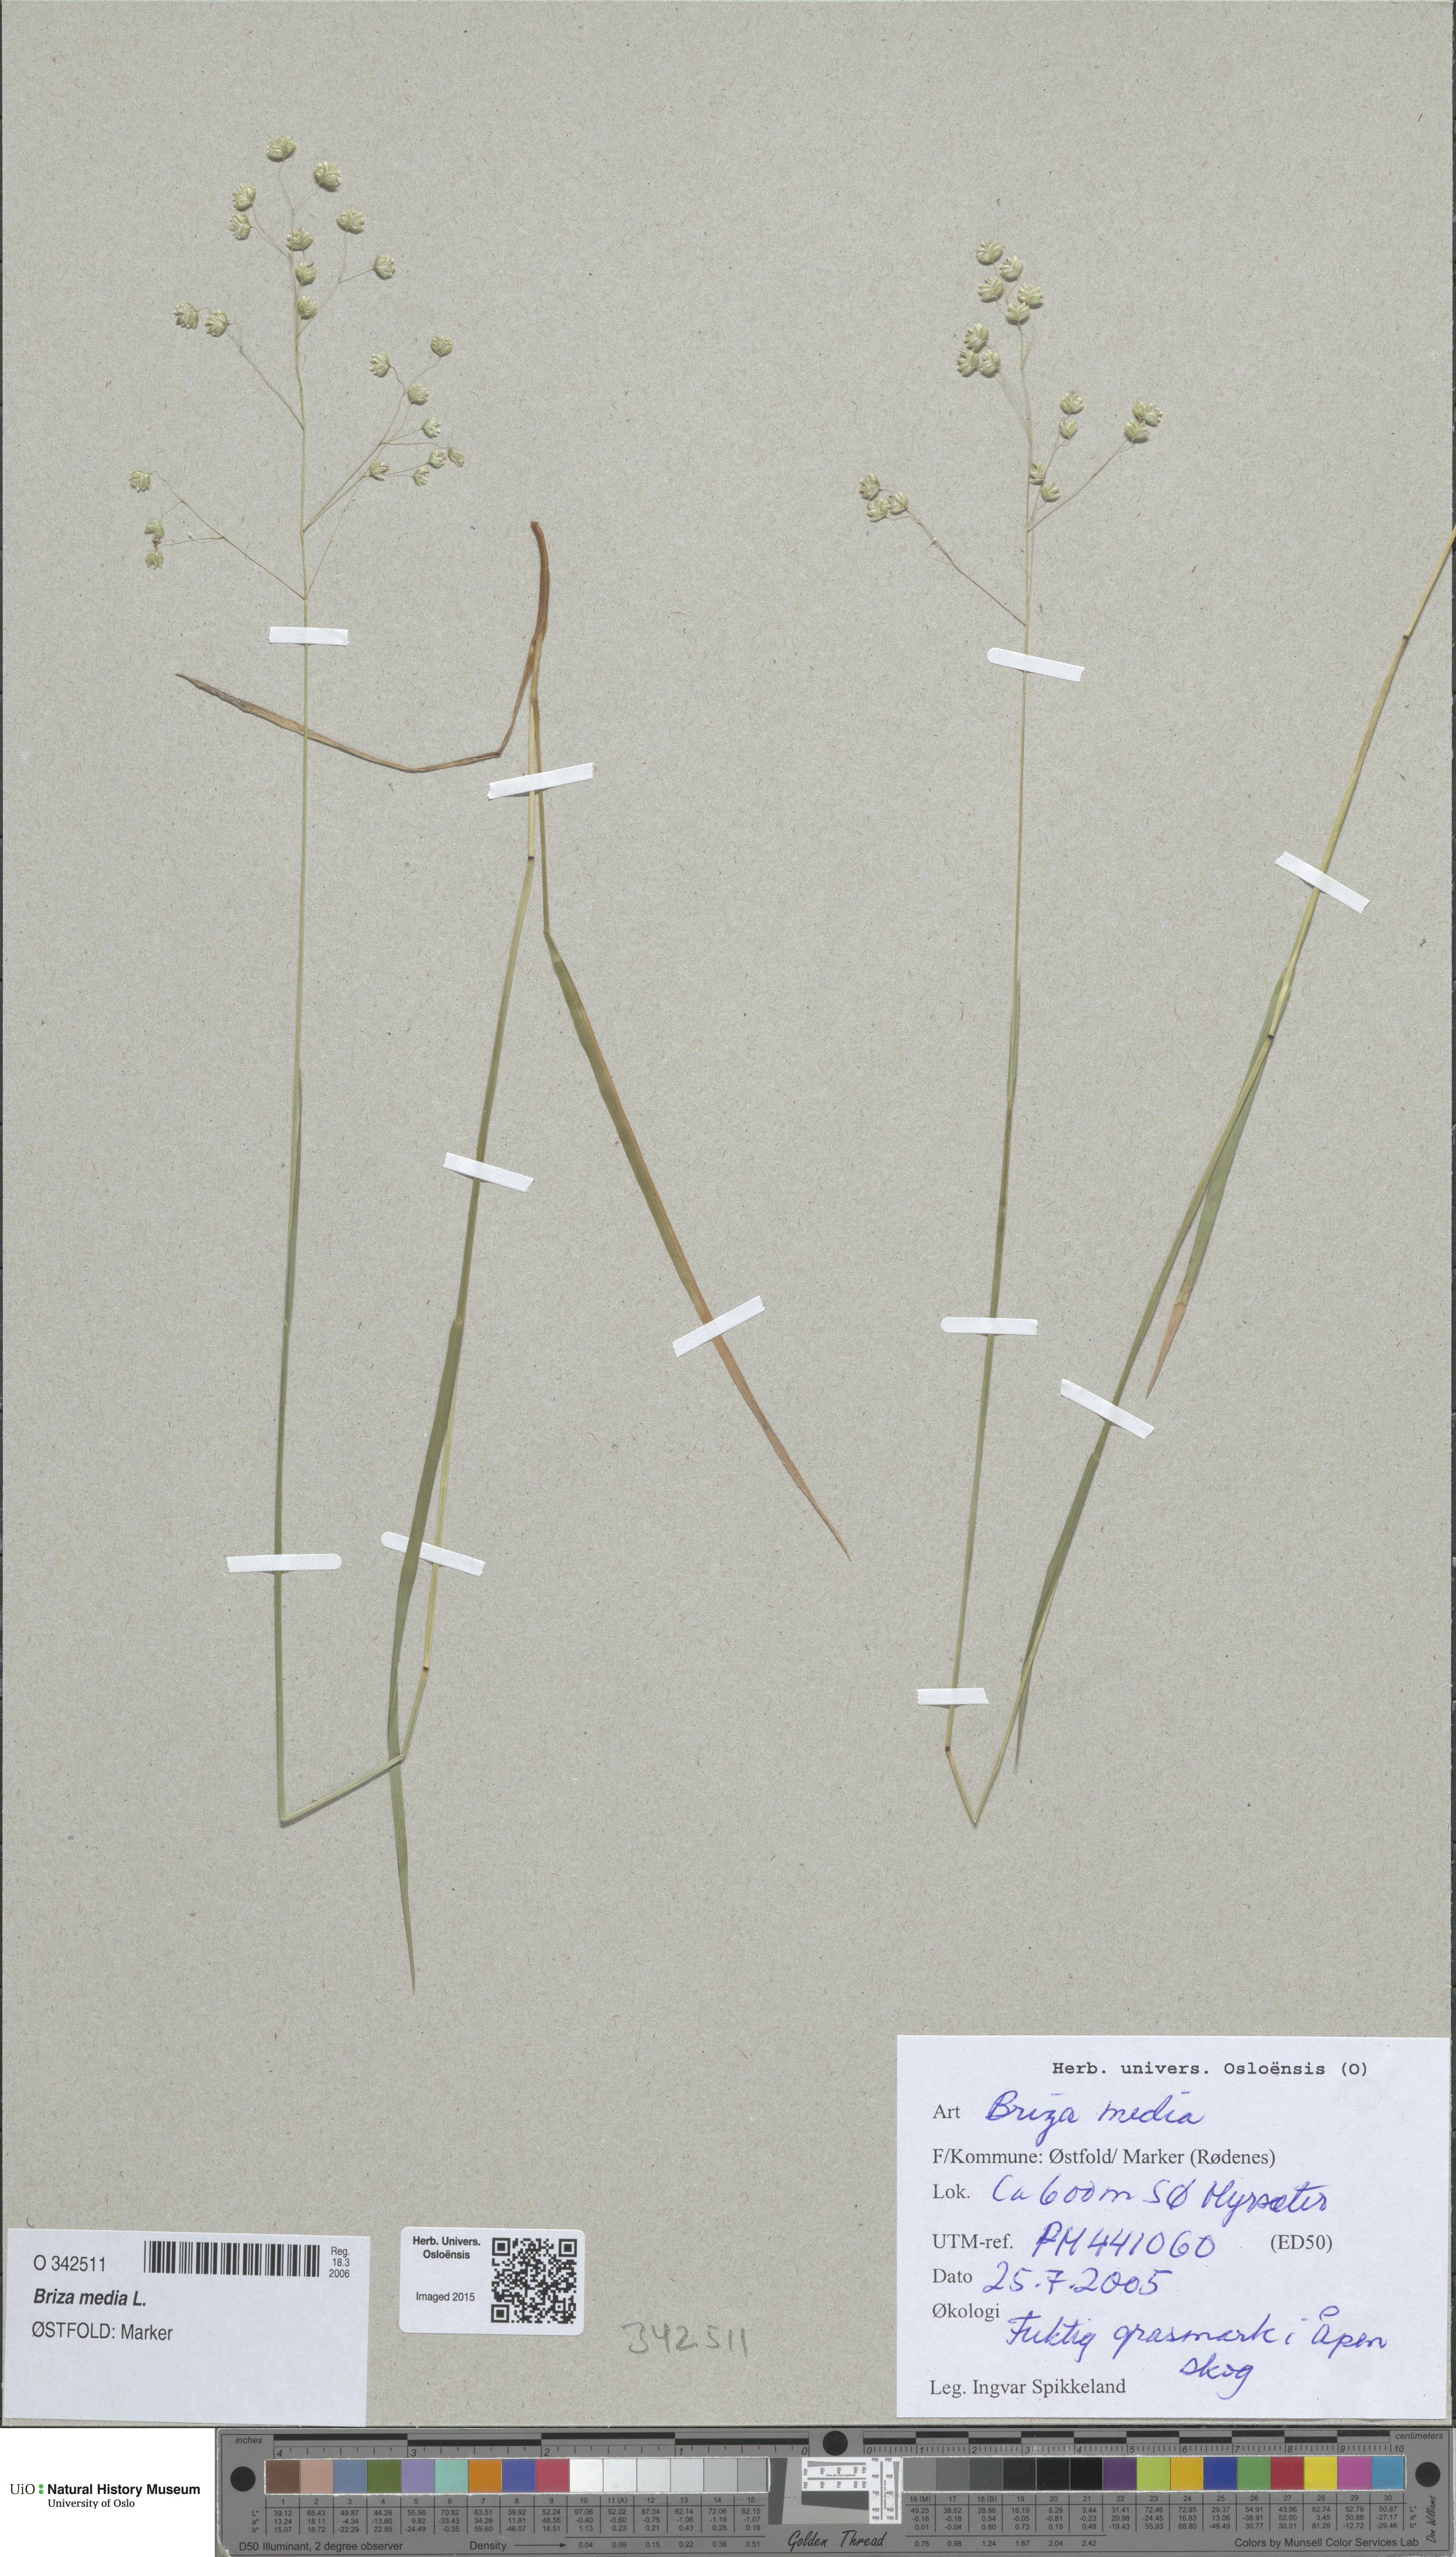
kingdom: Plantae
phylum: Tracheophyta
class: Liliopsida
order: Poales
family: Poaceae
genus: Briza
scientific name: Briza media
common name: Quaking grass
